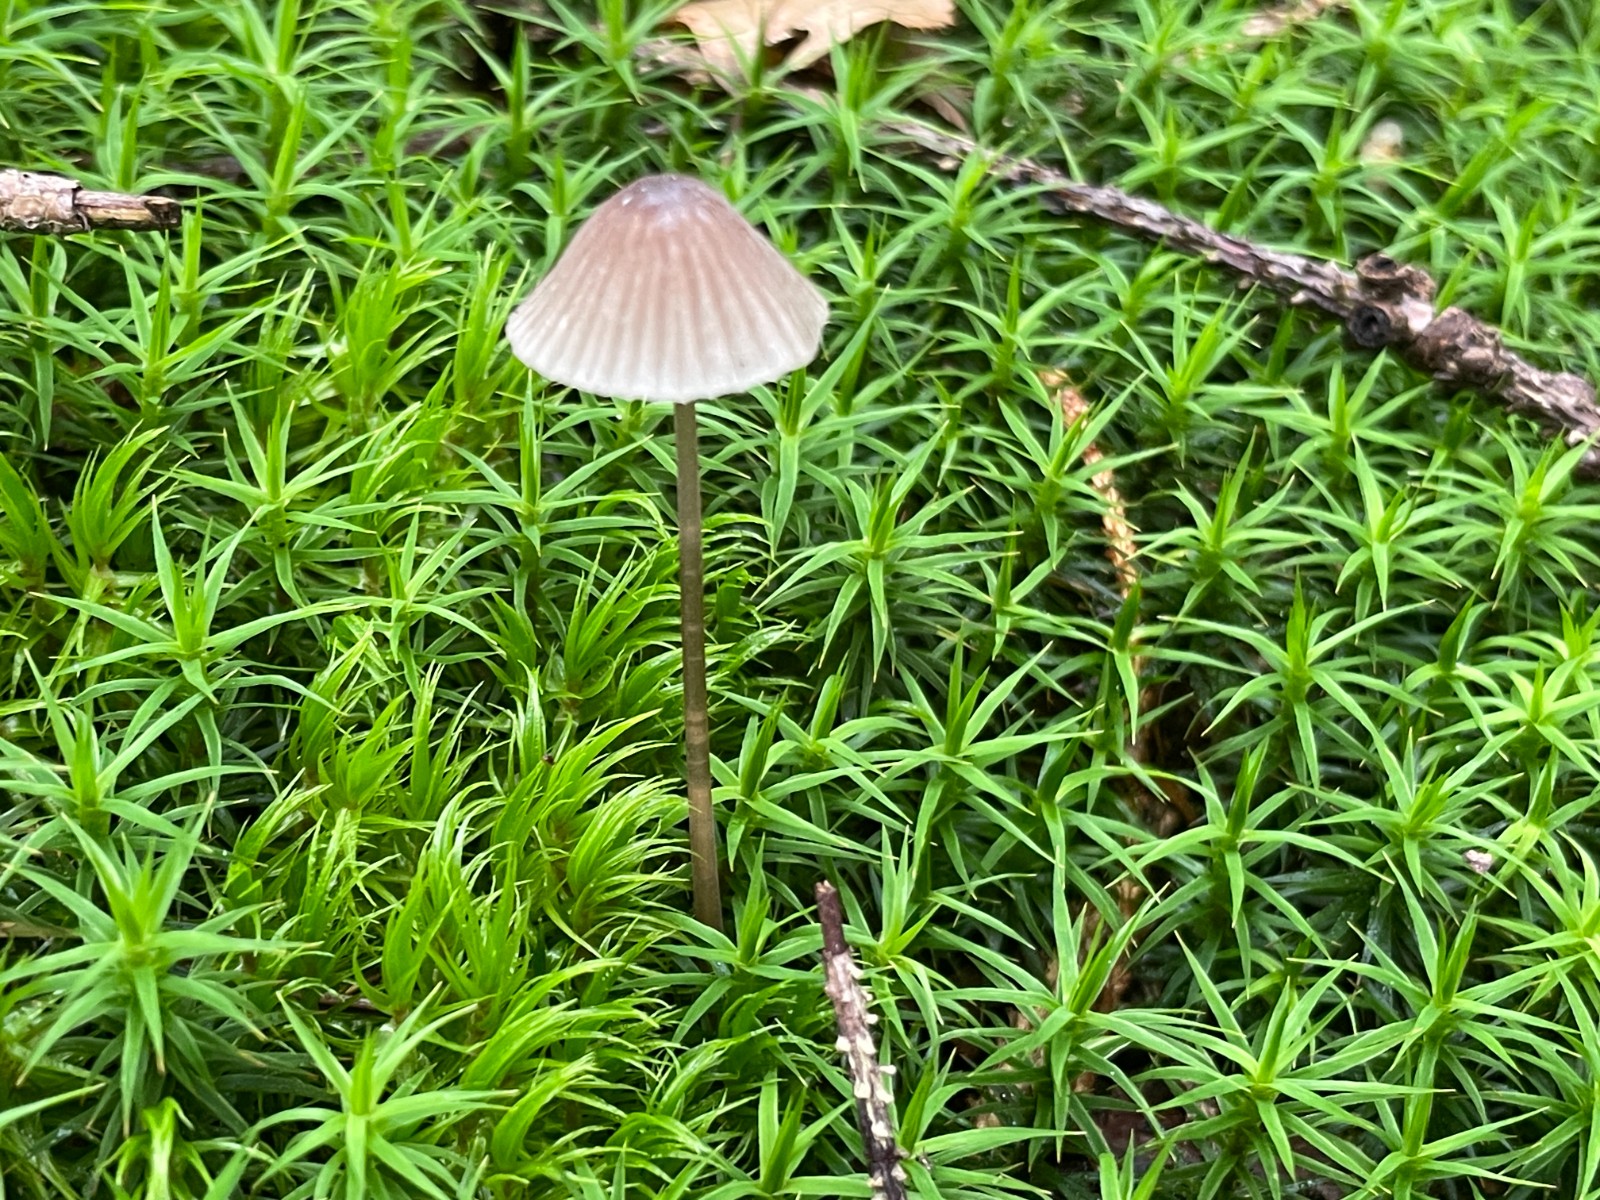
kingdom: Fungi
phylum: Basidiomycota
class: Agaricomycetes
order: Agaricales
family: Mycenaceae
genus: Mycena
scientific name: Mycena galopus
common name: hvidmælket huesvamp
